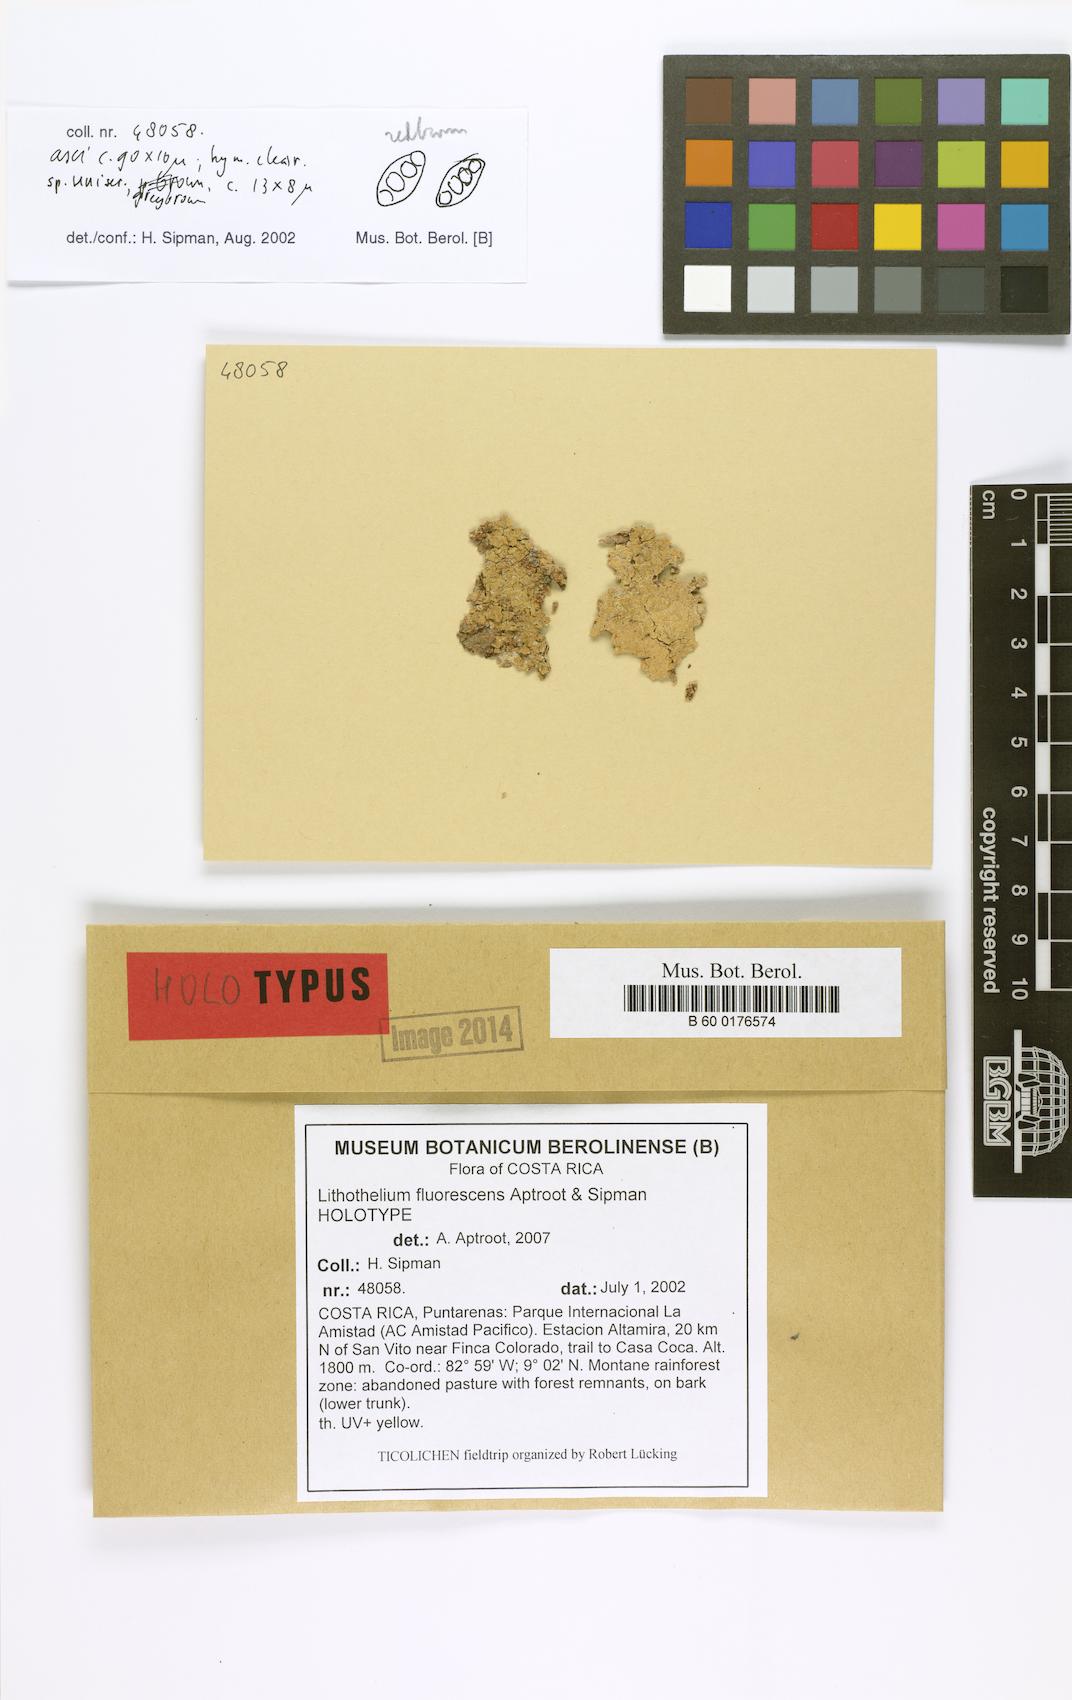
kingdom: Fungi
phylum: Ascomycota
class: Eurotiomycetes
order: Pyrenulales
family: Pyrenulaceae
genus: Lithothelium
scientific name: Lithothelium fluorescens
